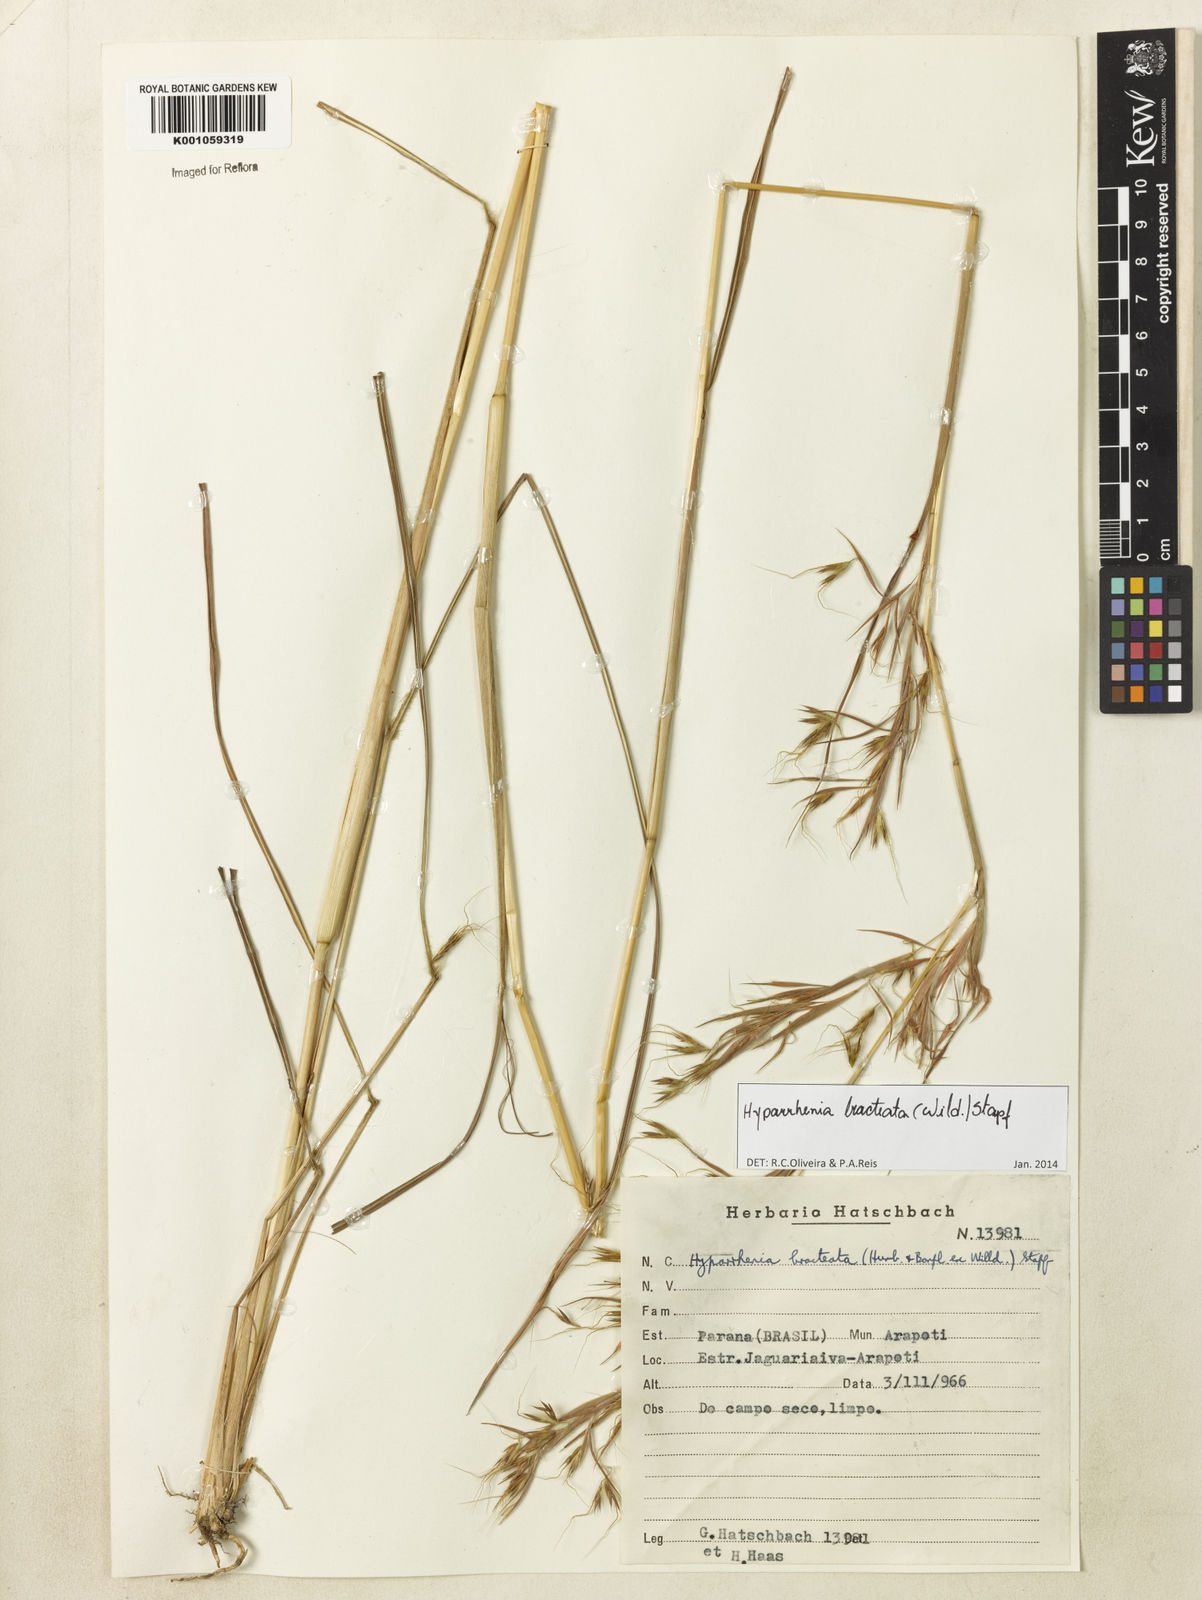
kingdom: Plantae
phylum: Tracheophyta
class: Liliopsida
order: Poales
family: Poaceae
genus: Hyparrhenia
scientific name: Hyparrhenia bracteata
